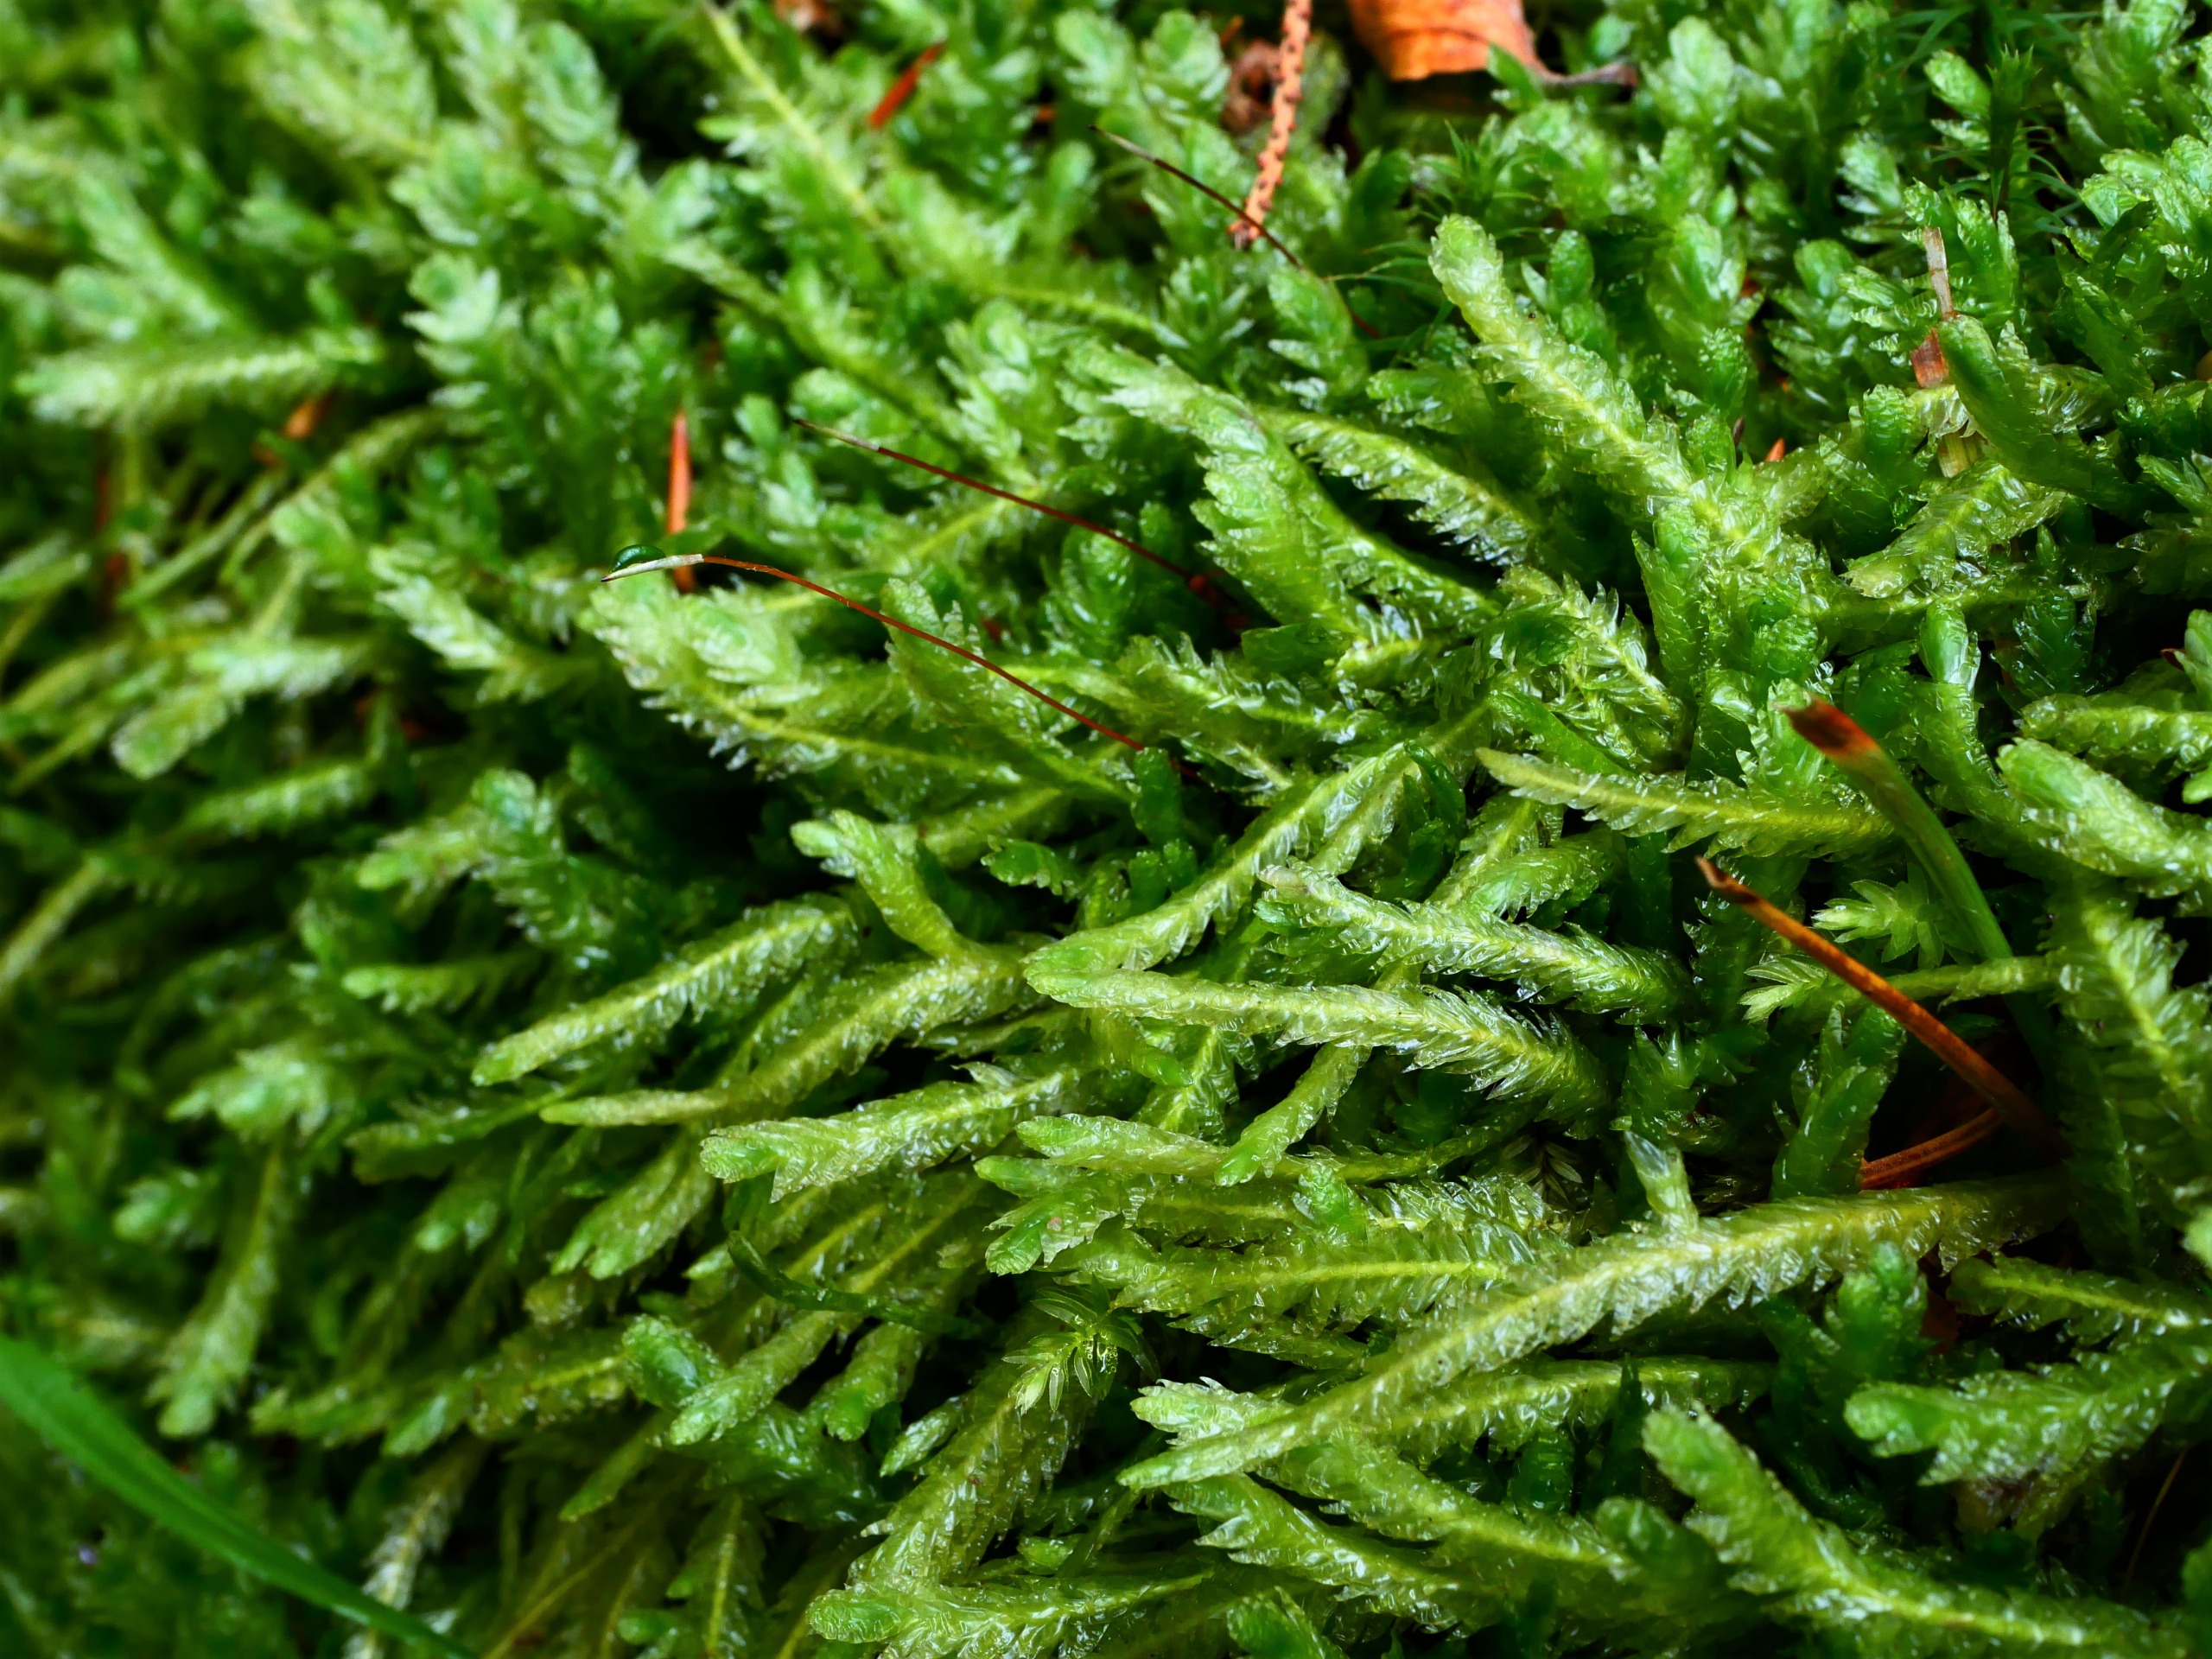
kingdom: Plantae
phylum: Bryophyta
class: Bryopsida
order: Hypnales
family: Plagiotheciaceae
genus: Plagiothecium
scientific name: Plagiothecium undulatum
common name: Bølget tæppemos
